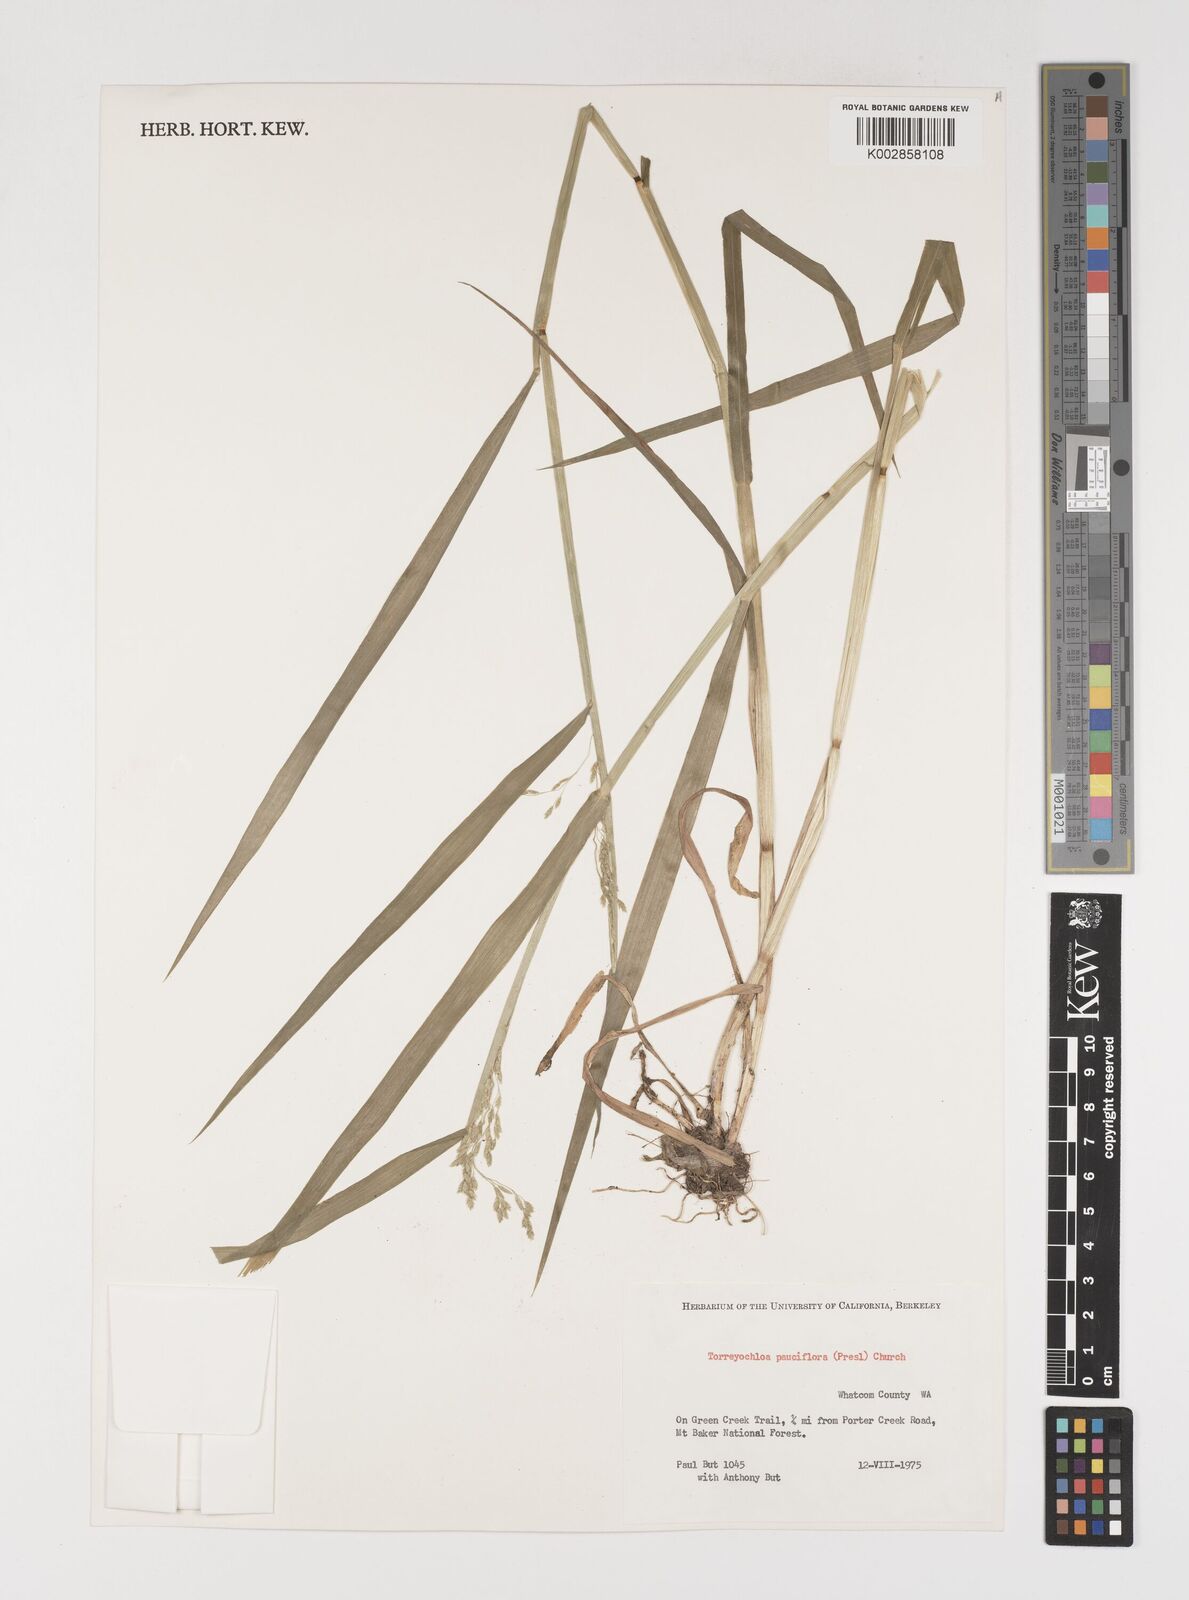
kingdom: Plantae
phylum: Tracheophyta
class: Liliopsida
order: Poales
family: Poaceae
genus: Torreyochloa
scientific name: Torreyochloa pallida
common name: Pale false mannagrass
